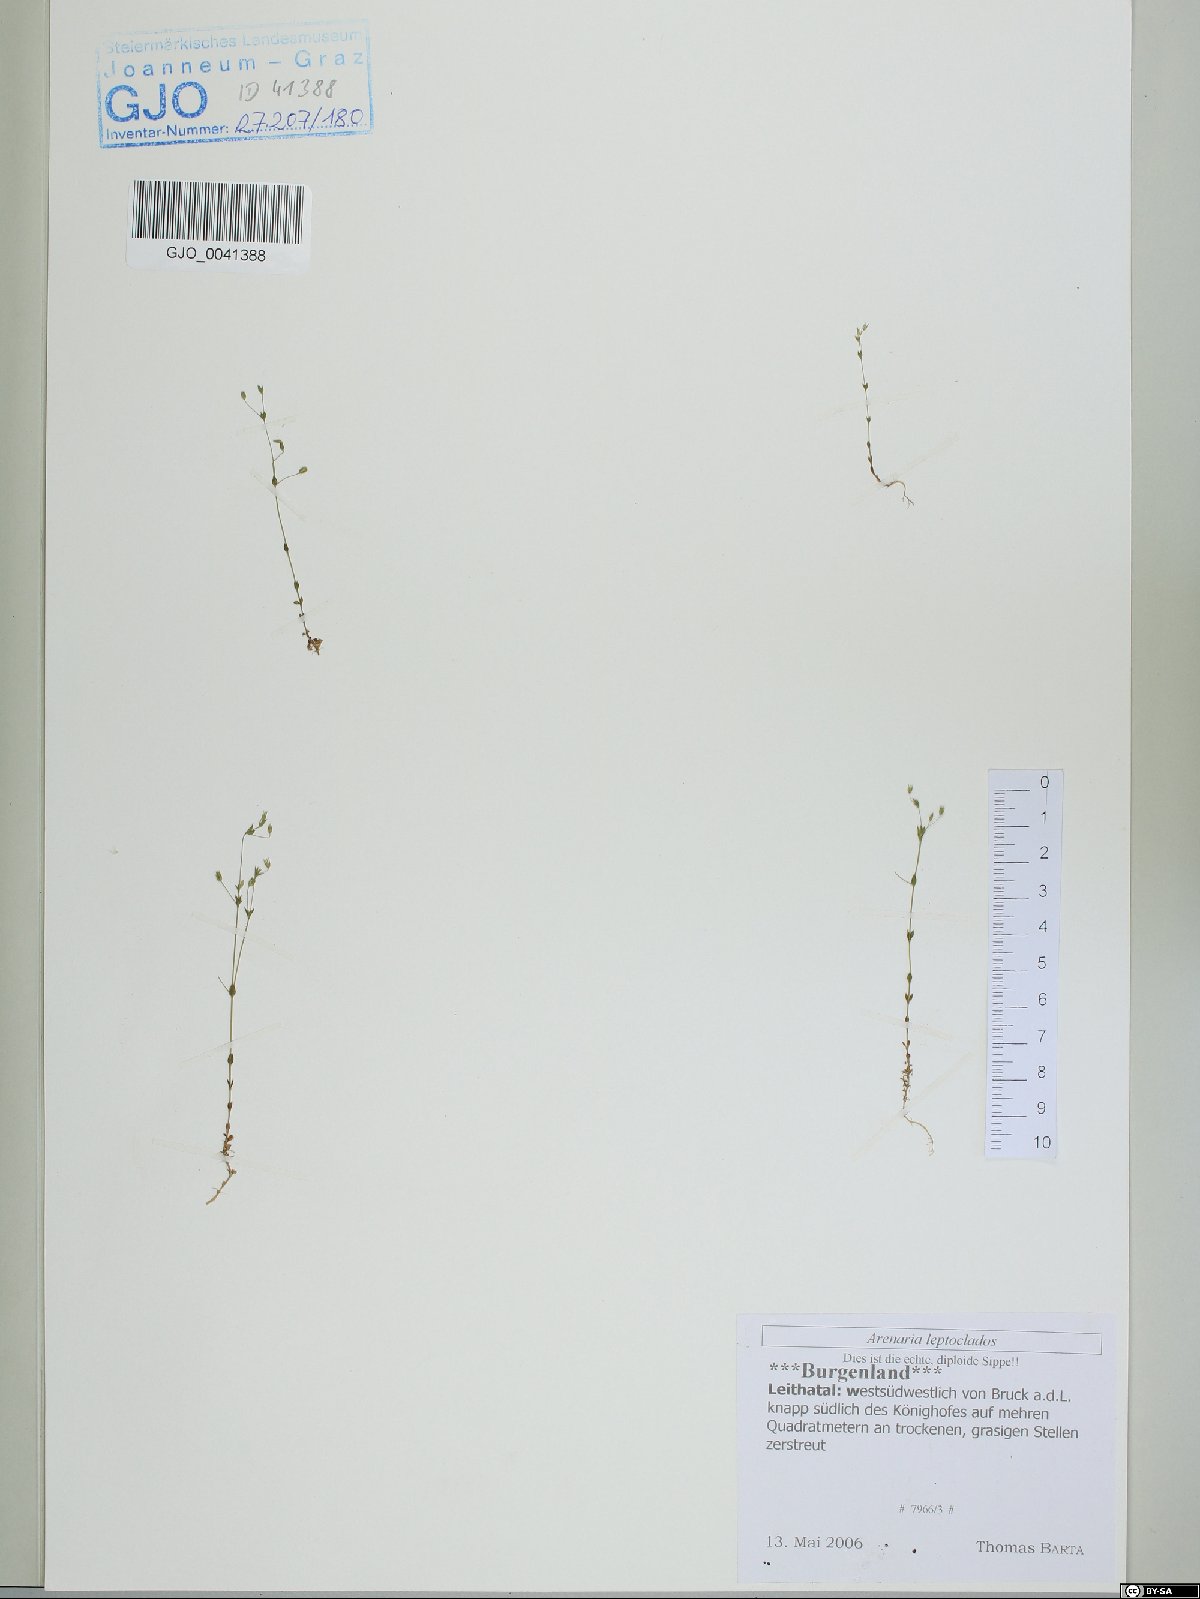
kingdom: Plantae
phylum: Tracheophyta
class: Magnoliopsida
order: Caryophyllales
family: Caryophyllaceae
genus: Arenaria
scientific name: Arenaria leptoclados
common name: Thyme-leaved sandwort
